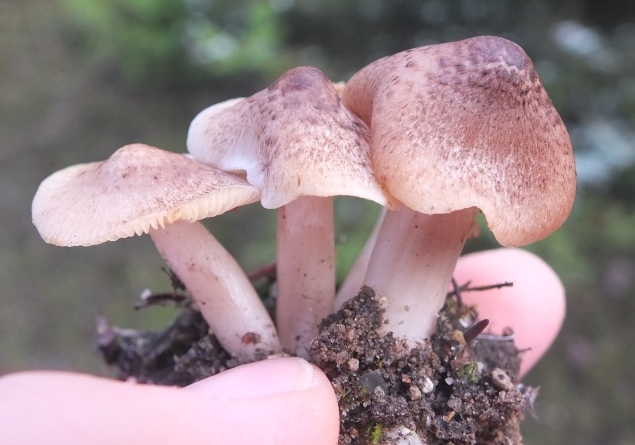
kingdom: Fungi
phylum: Basidiomycota
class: Agaricomycetes
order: Agaricales
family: Tricholomataceae
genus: Tricholoma
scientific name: Tricholoma argyraceum
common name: slør-ridderhat
